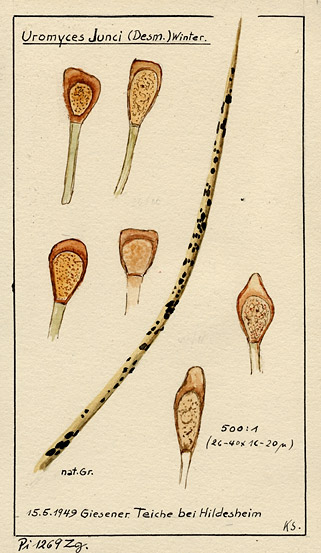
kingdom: Fungi
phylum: Basidiomycota
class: Pucciniomycetes
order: Pucciniales
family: Pucciniaceae
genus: Uromyces
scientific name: Uromyces junci
